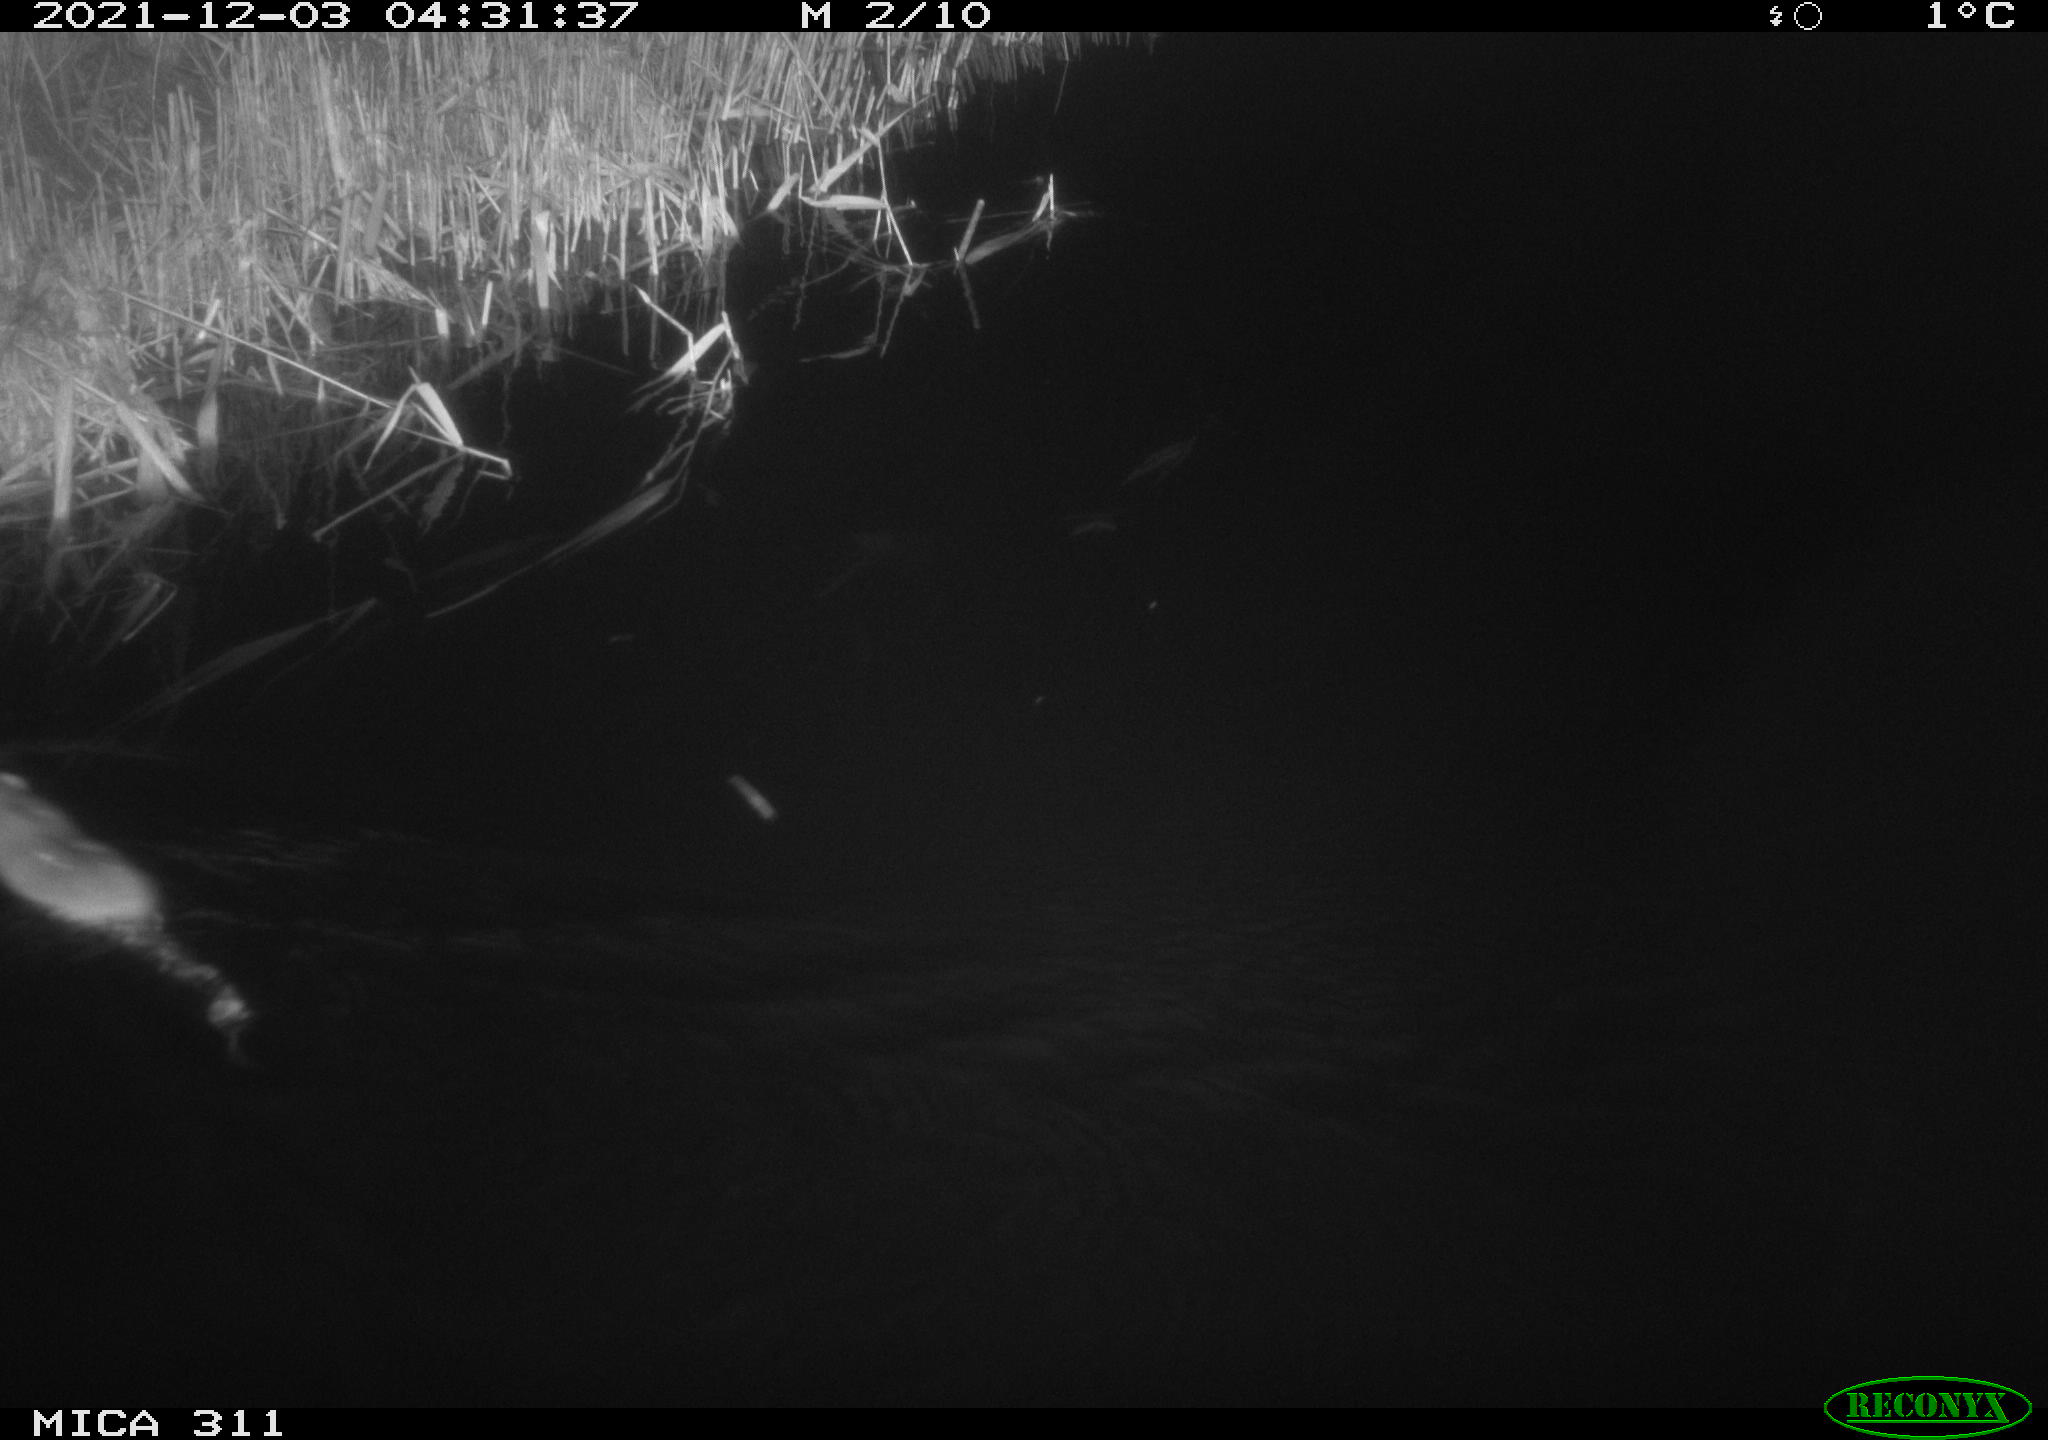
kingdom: Animalia
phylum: Chordata
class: Mammalia
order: Rodentia
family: Muridae
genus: Rattus
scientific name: Rattus norvegicus
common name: Brown rat
